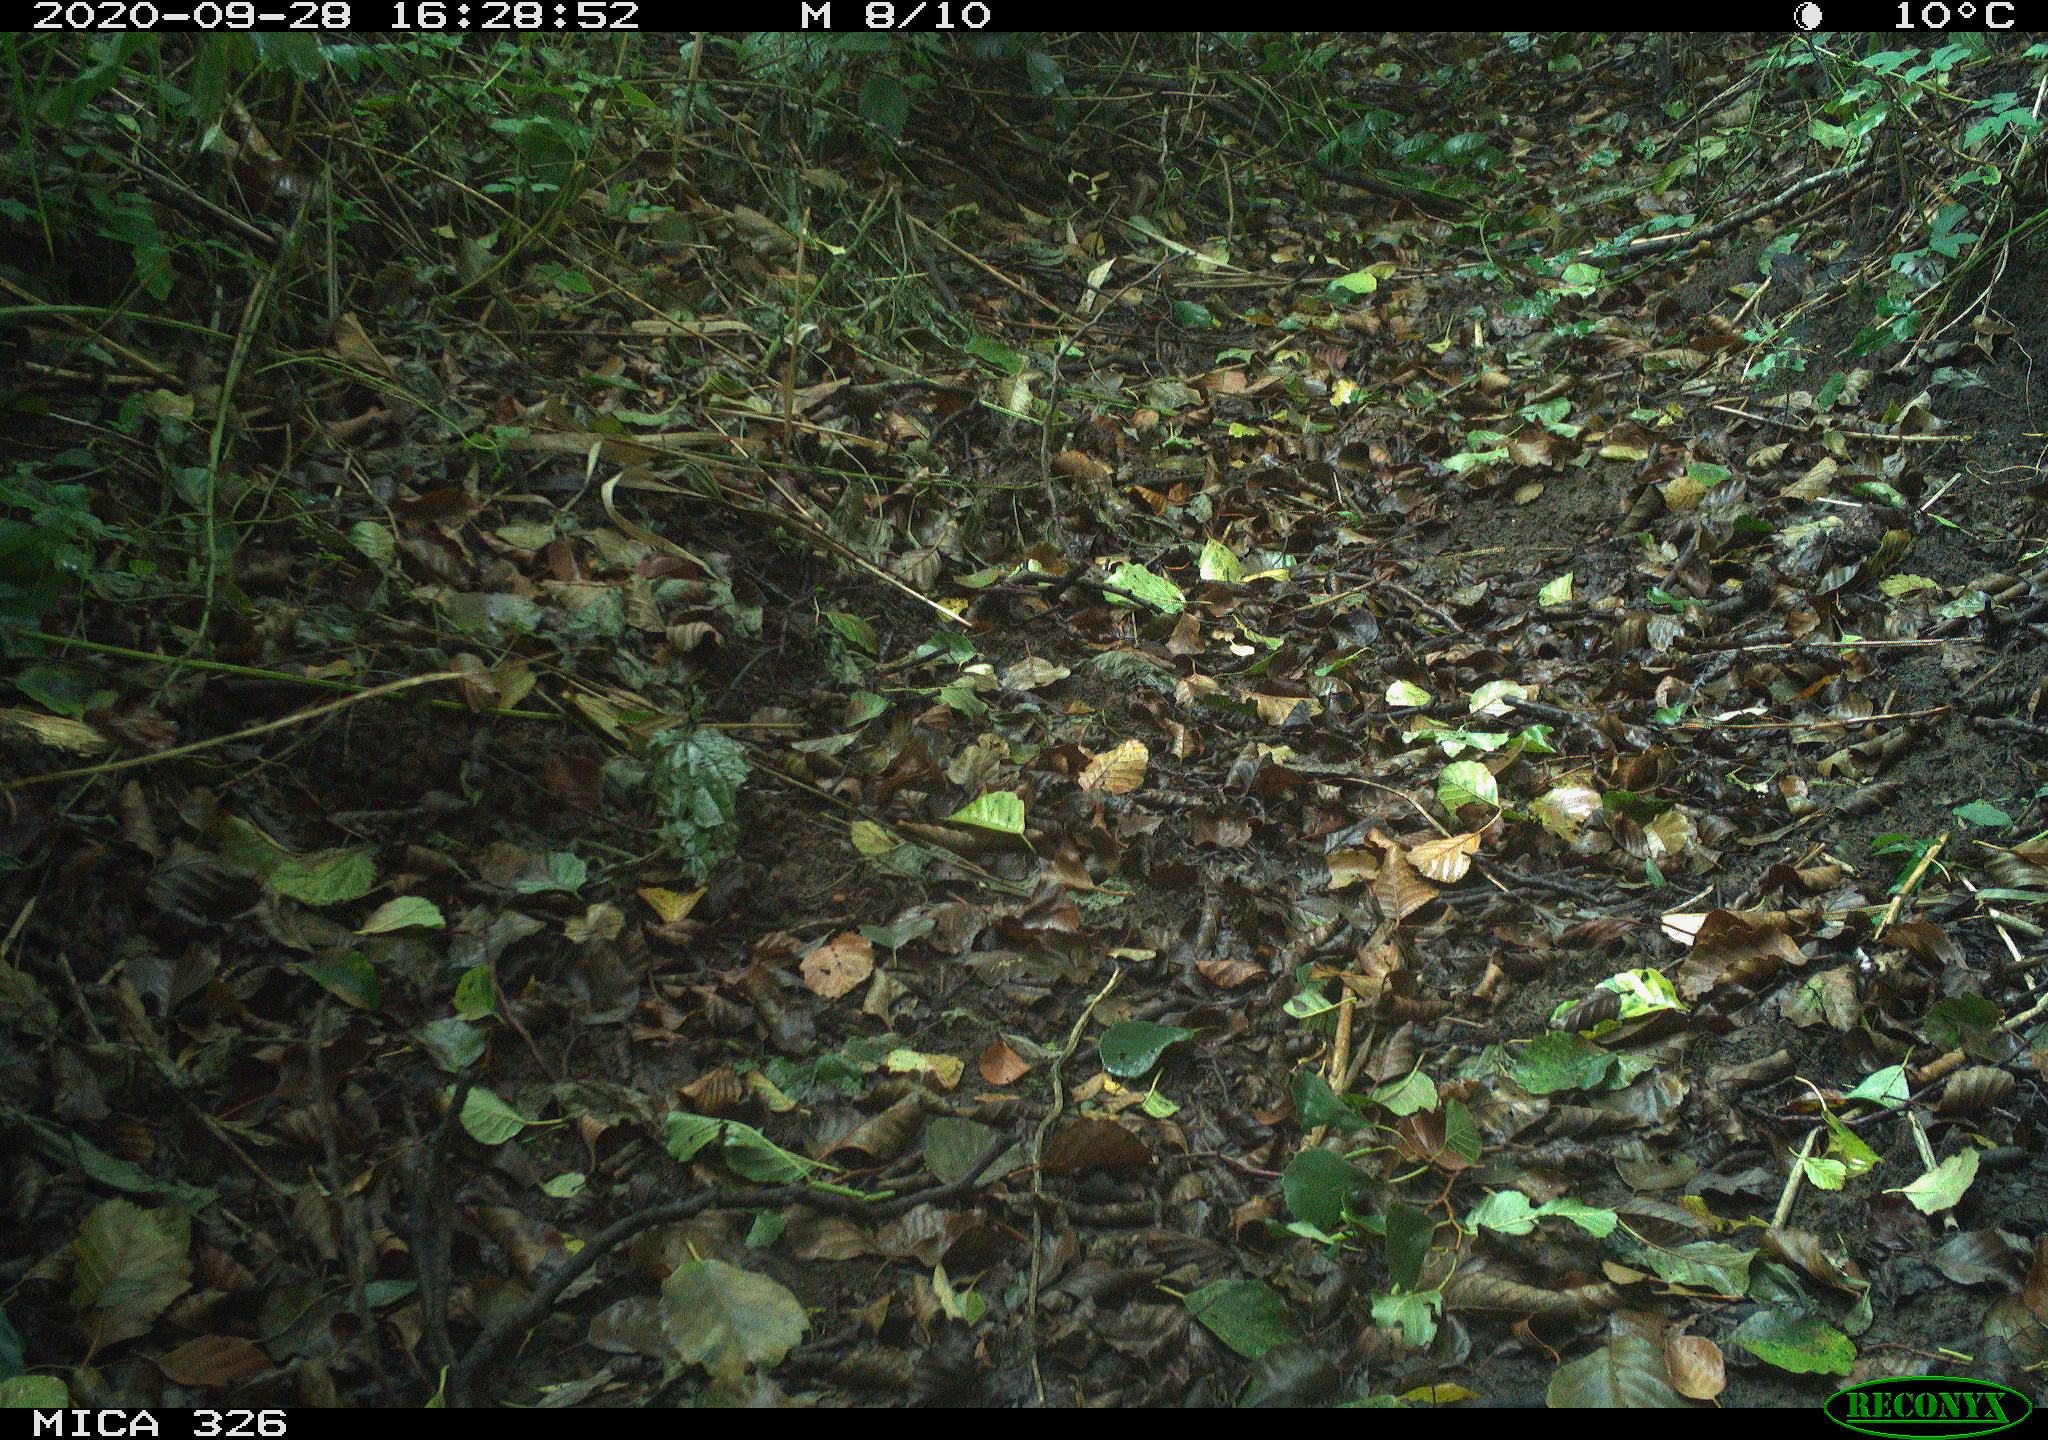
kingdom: Animalia
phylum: Chordata
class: Aves
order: Passeriformes
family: Turdidae
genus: Turdus
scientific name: Turdus philomelos
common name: Song thrush
